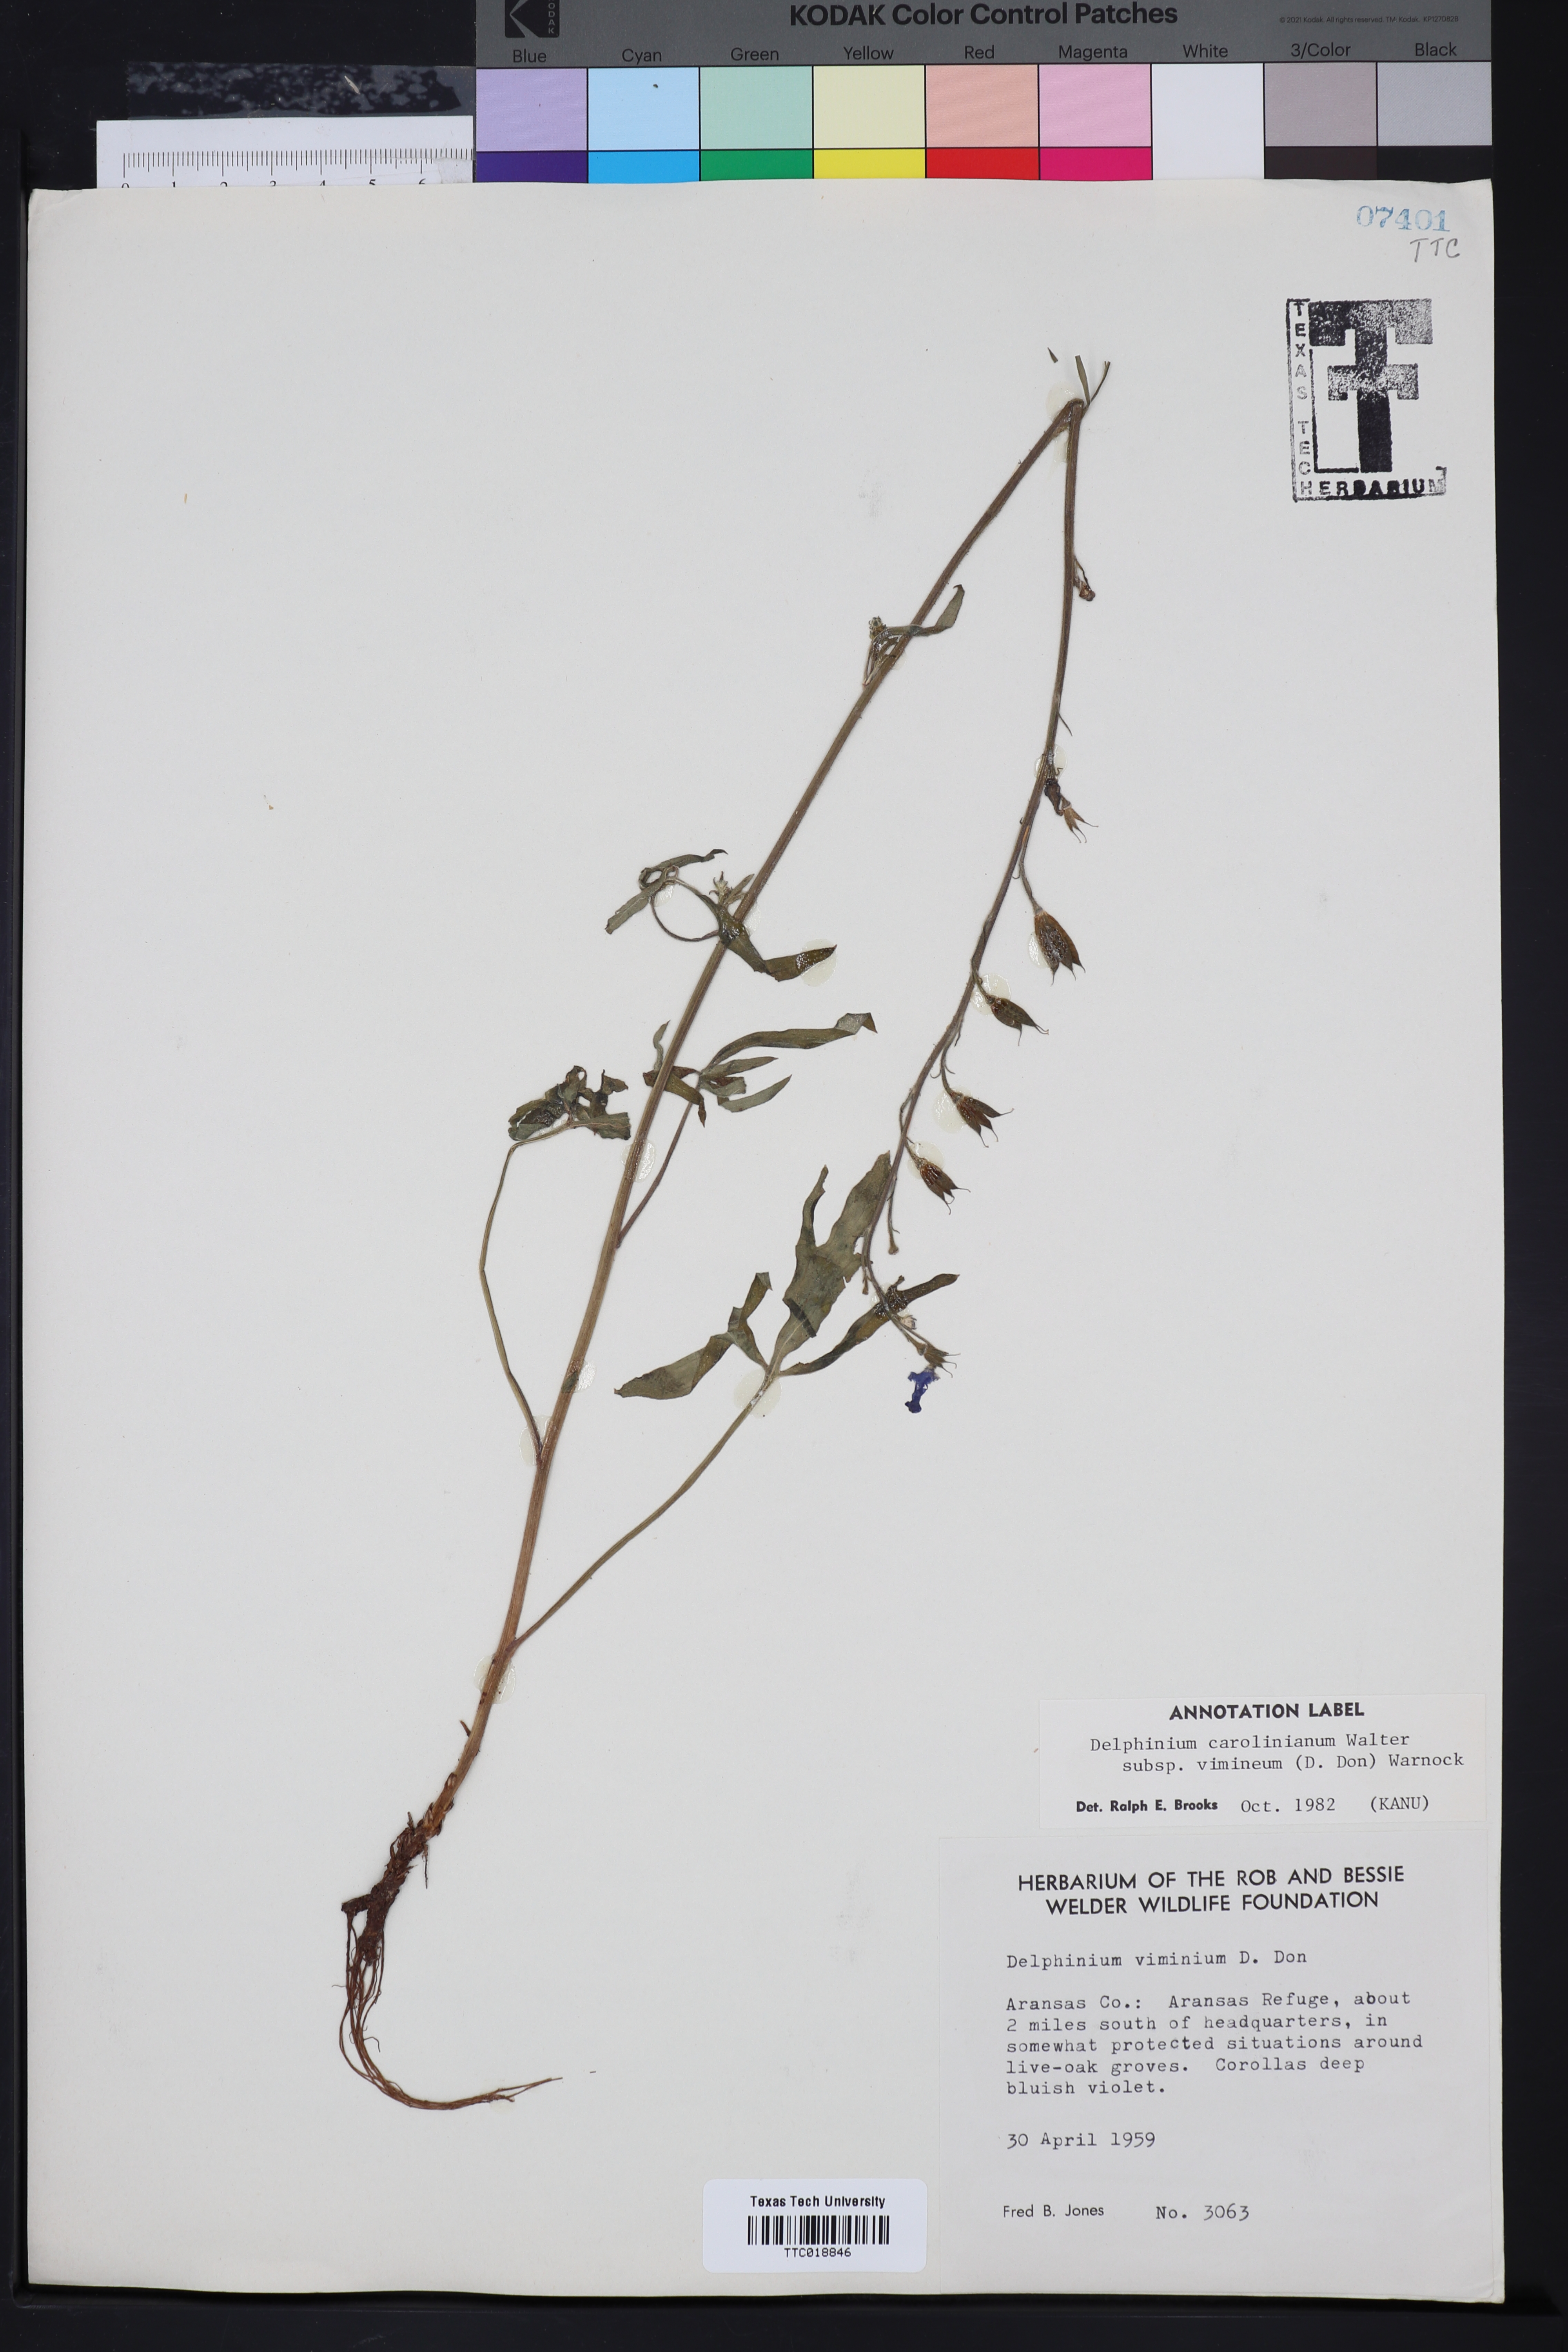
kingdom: Plantae
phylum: Tracheophyta
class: Magnoliopsida
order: Ranunculales
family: Ranunculaceae
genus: Delphinium
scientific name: Delphinium carolinianum
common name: Carolina larkspur
